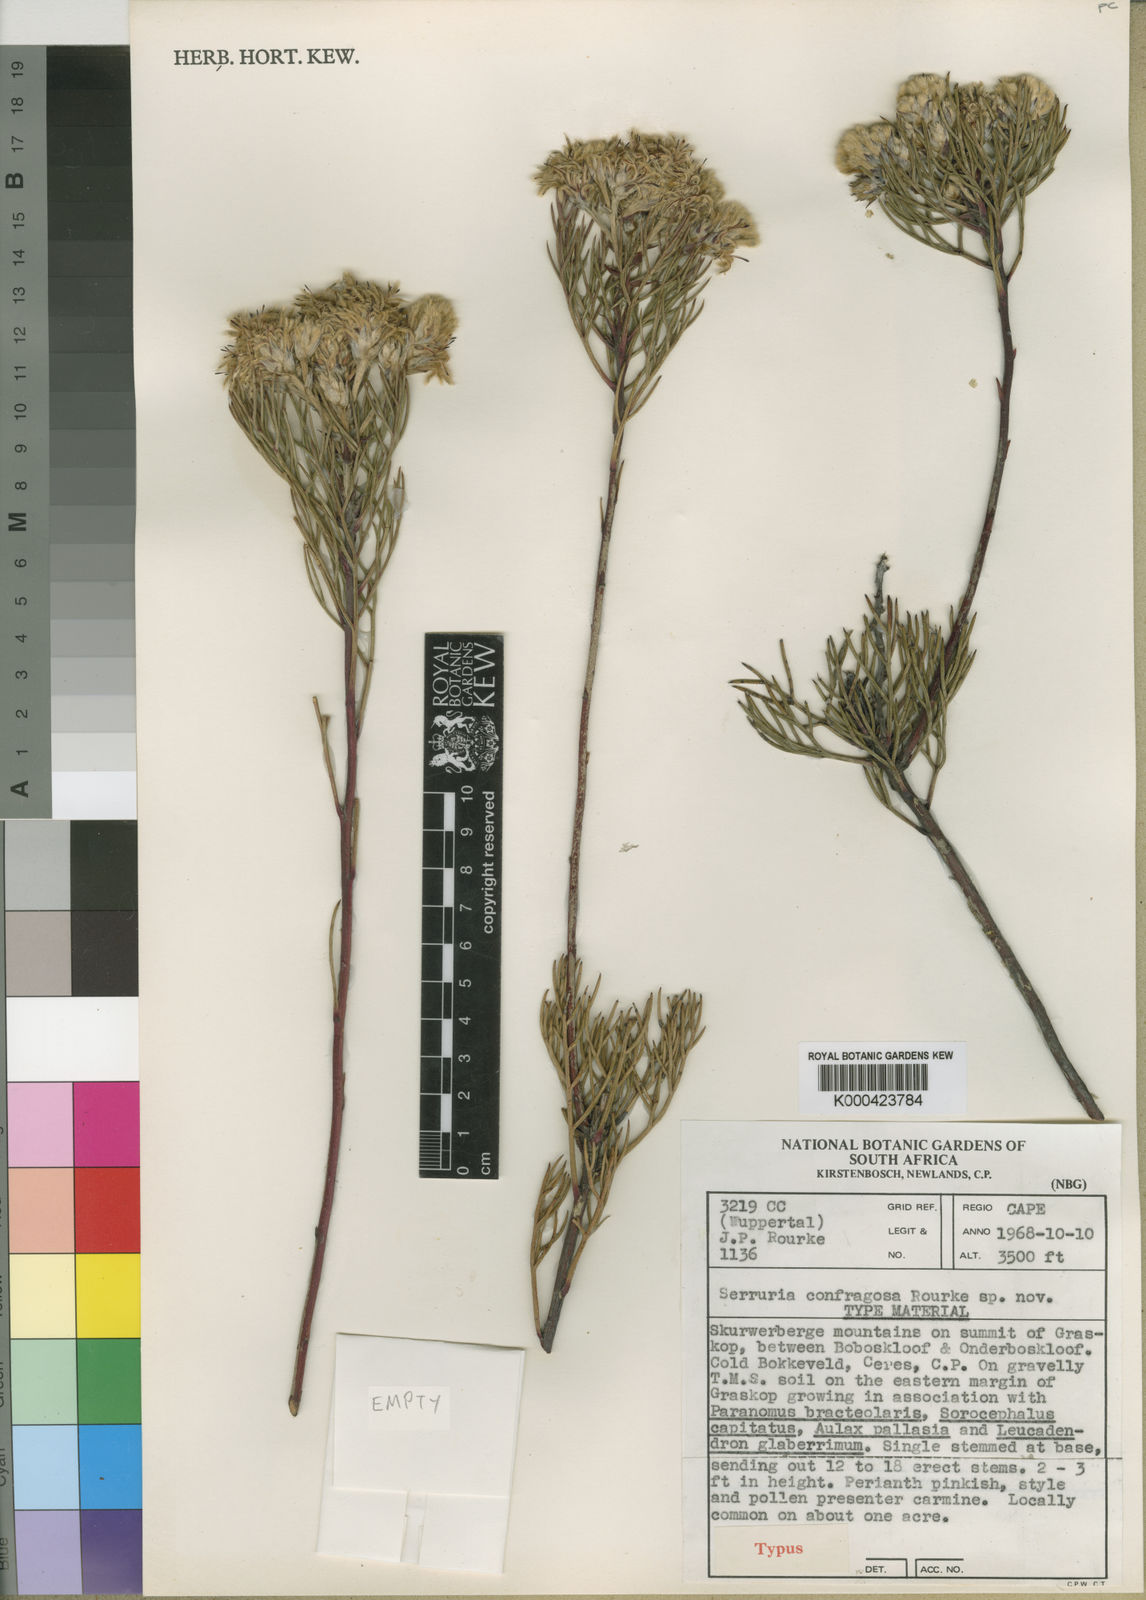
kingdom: Plantae
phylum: Tracheophyta
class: Magnoliopsida
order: Proteales
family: Proteaceae
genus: Serruria
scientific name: Serruria confragosa
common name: Wavy spiderhead
